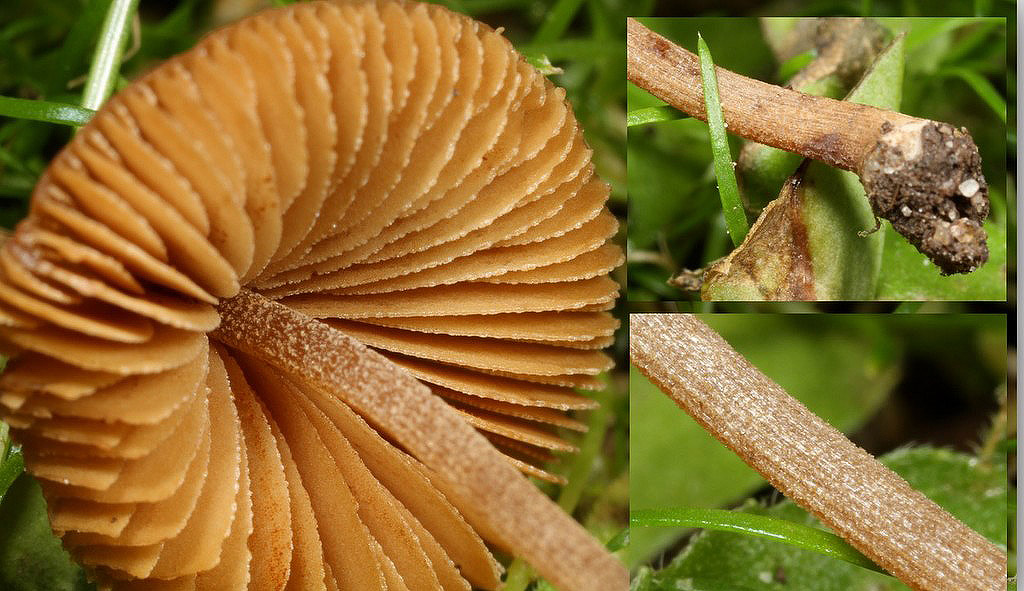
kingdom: Fungi
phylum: Basidiomycota
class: Agaricomycetes
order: Agaricales
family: Bolbitiaceae
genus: Conocybe
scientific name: Conocybe juniana
